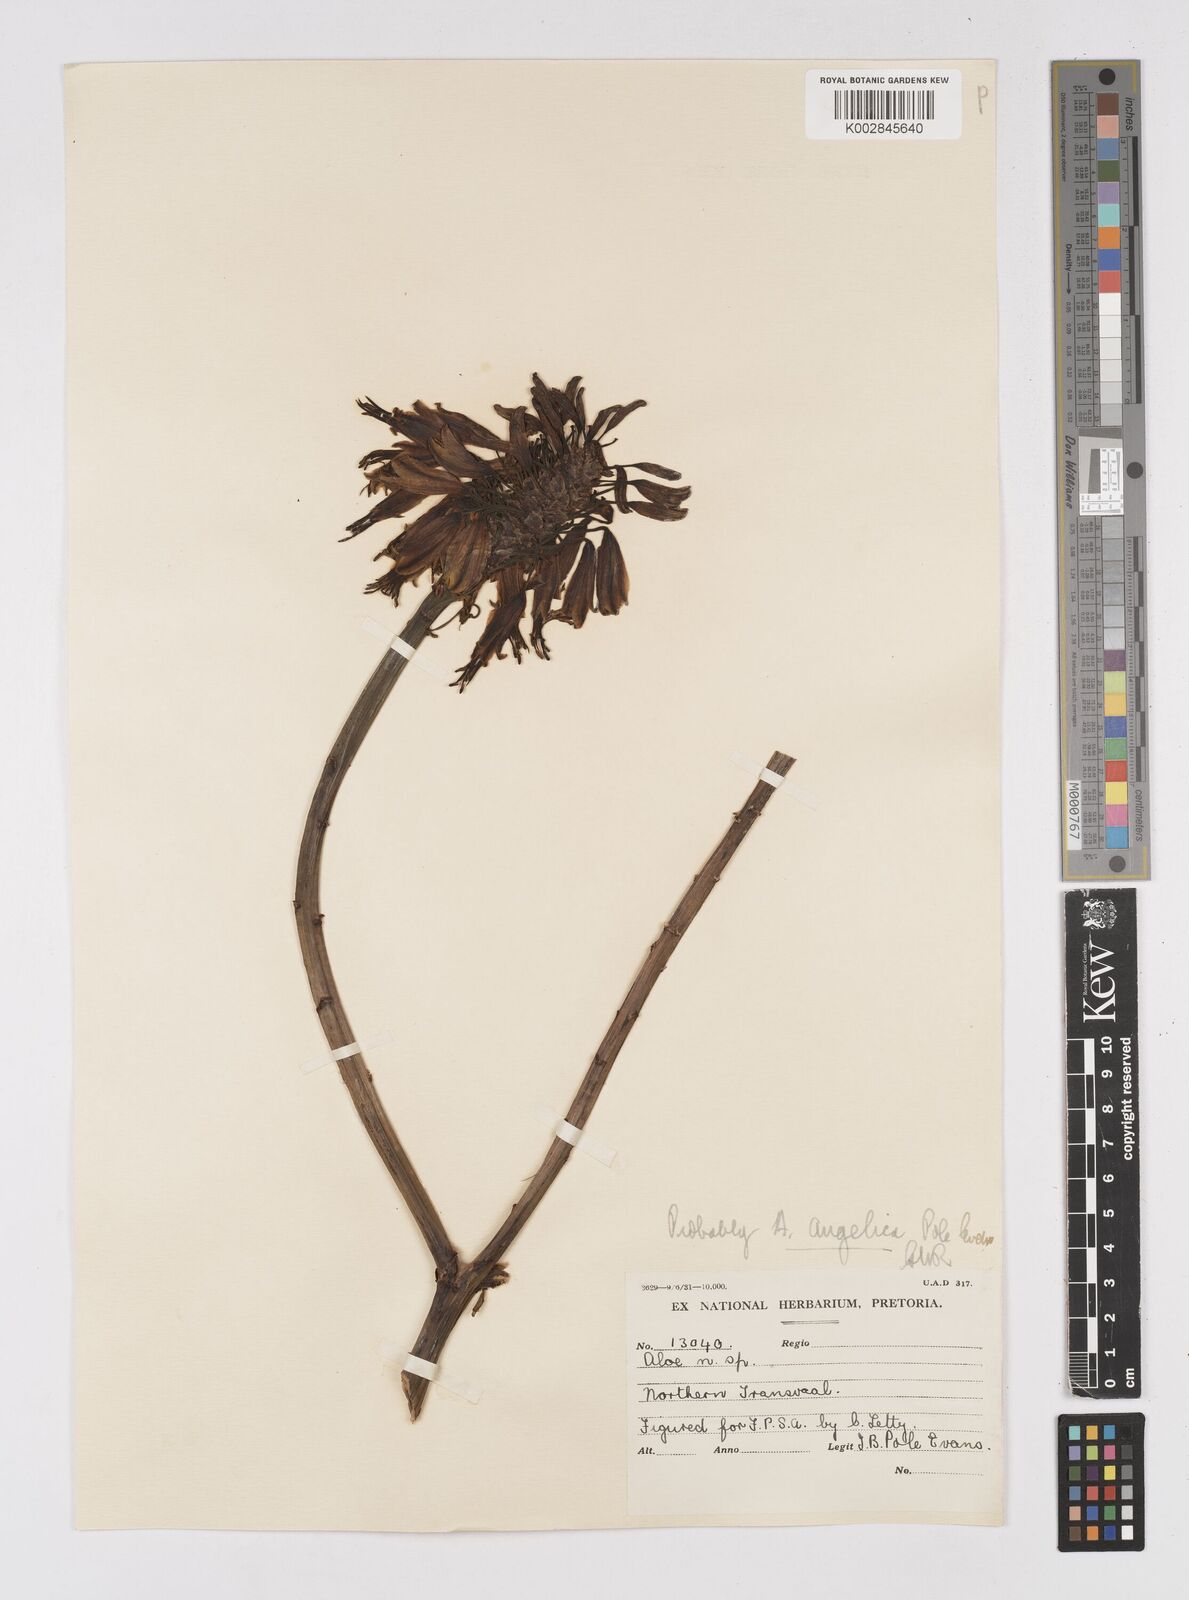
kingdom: Plantae
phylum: Tracheophyta
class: Liliopsida
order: Asparagales
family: Asphodelaceae
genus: Aloe
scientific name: Aloe angelica
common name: Wylliespoort aloe
